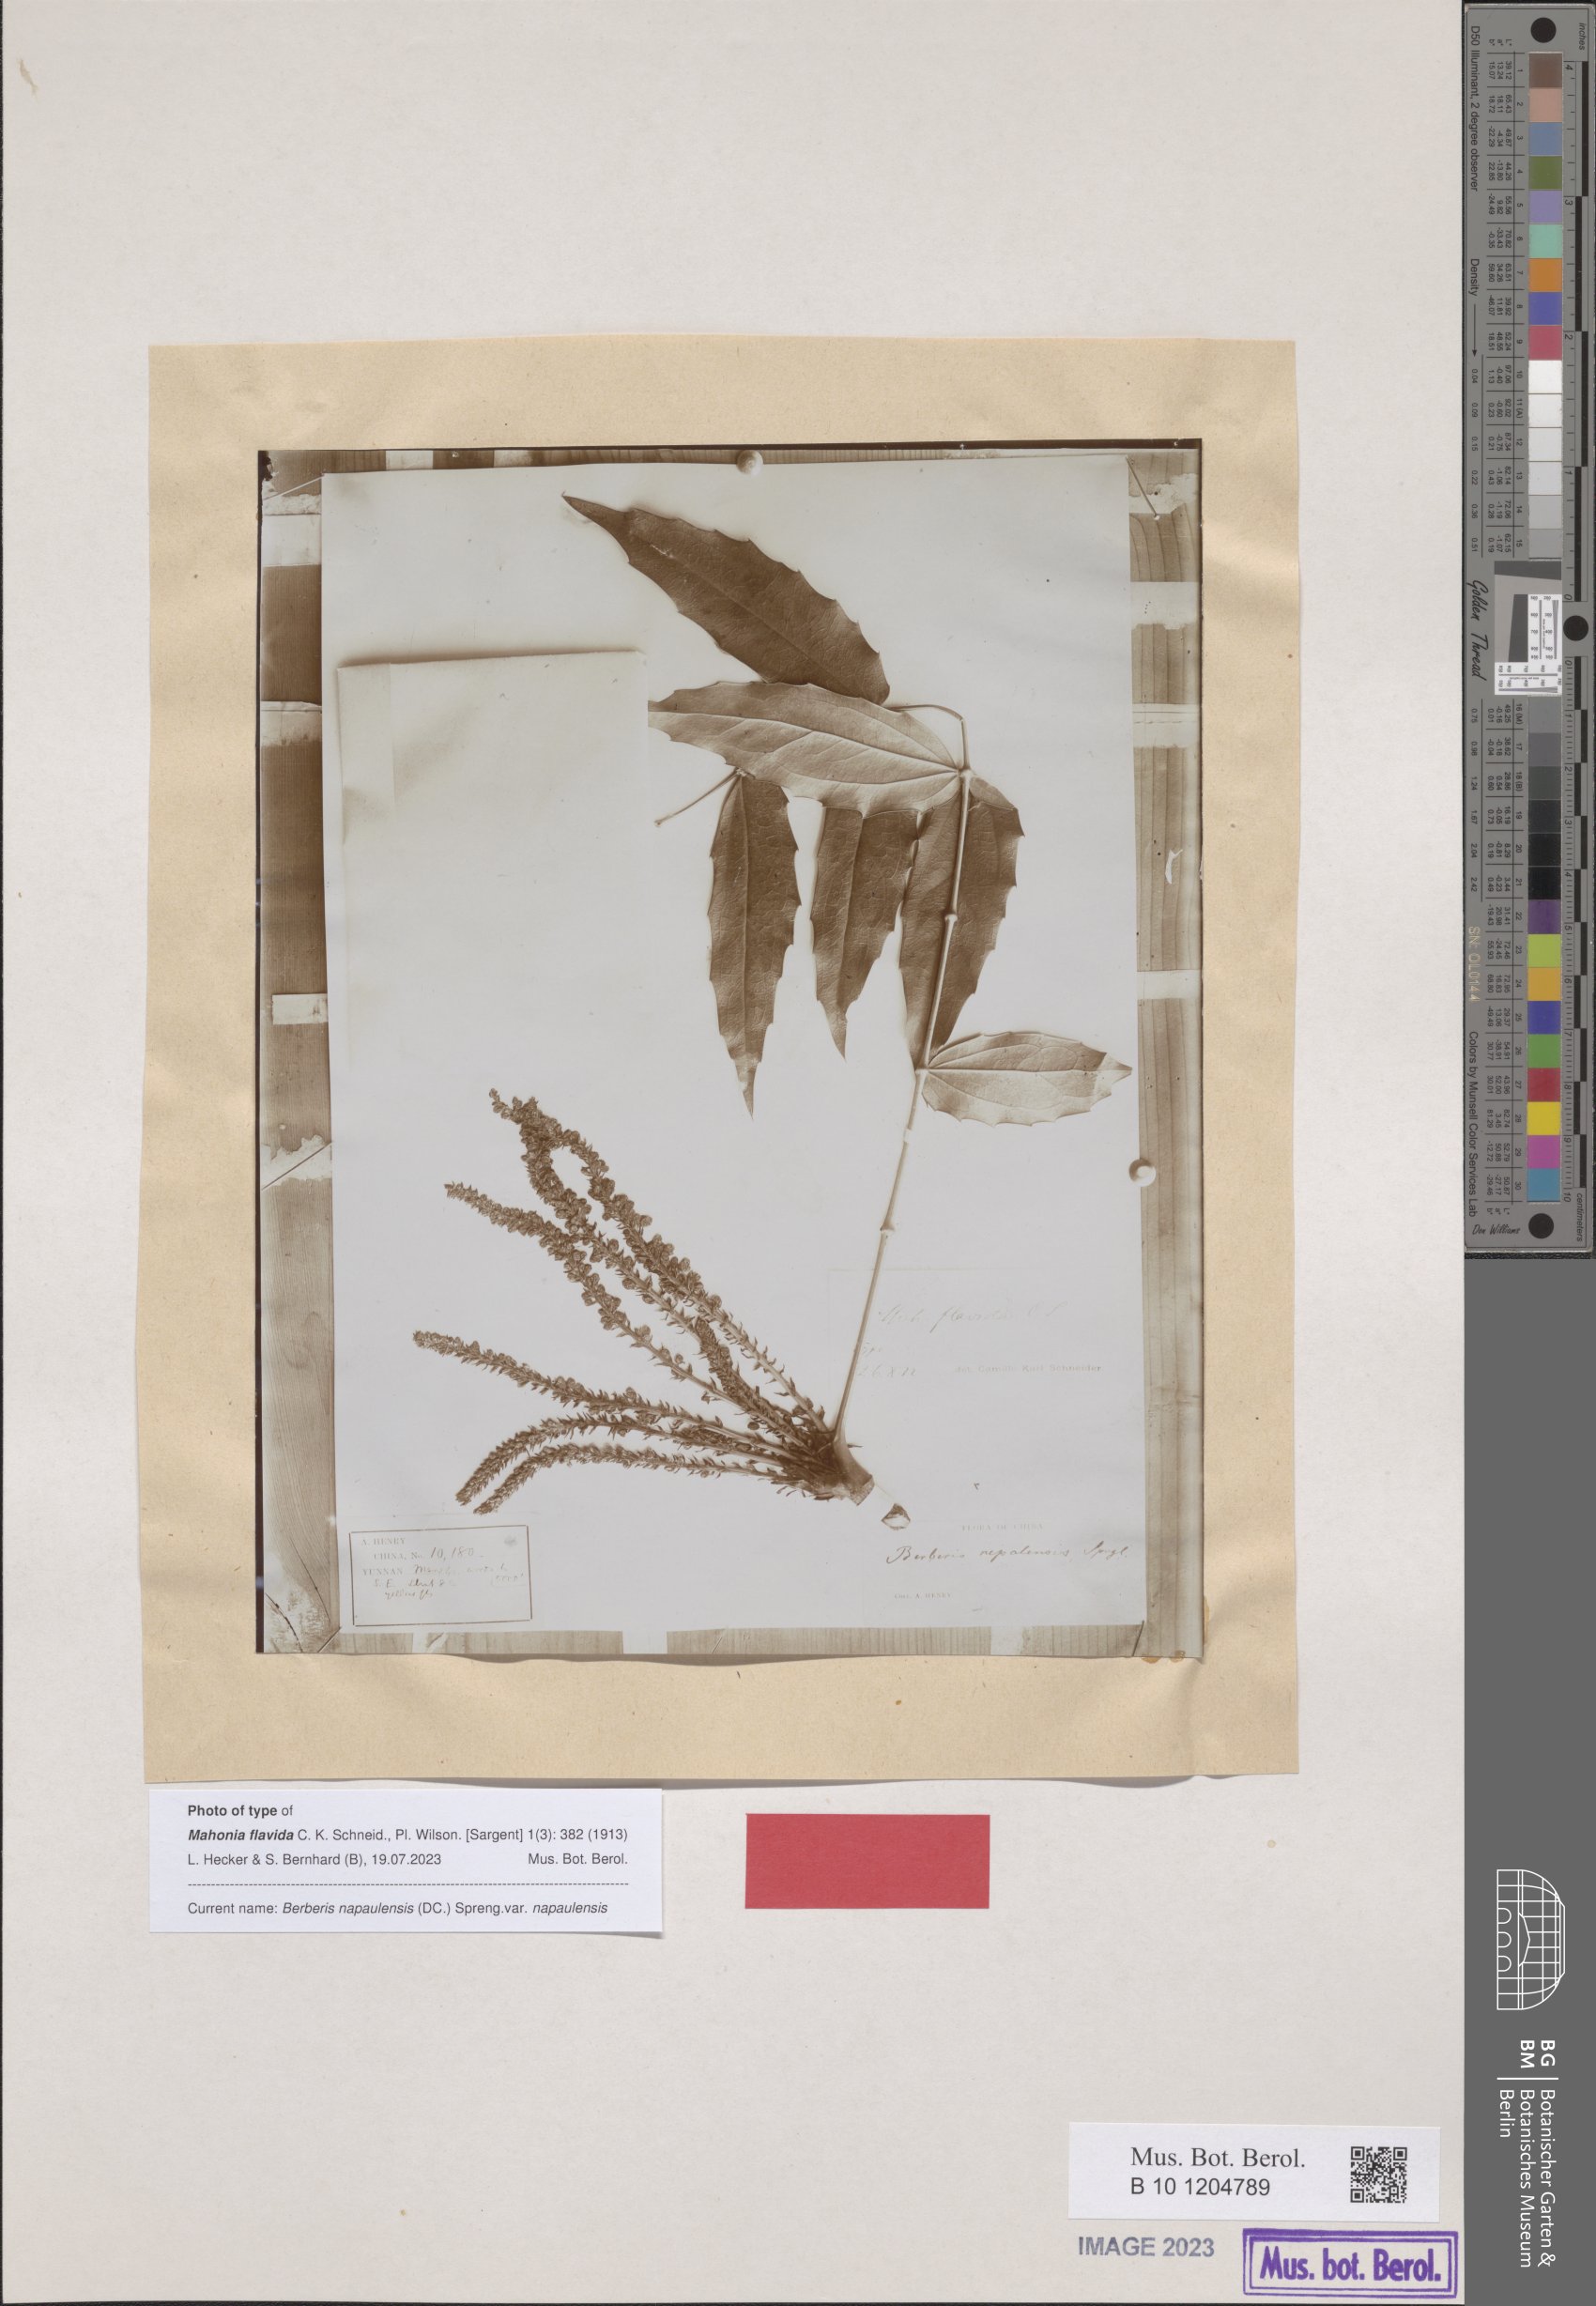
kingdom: Plantae
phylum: Tracheophyta
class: Magnoliopsida
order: Ranunculales
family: Berberidaceae
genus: Mahonia
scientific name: Mahonia napaulensis
